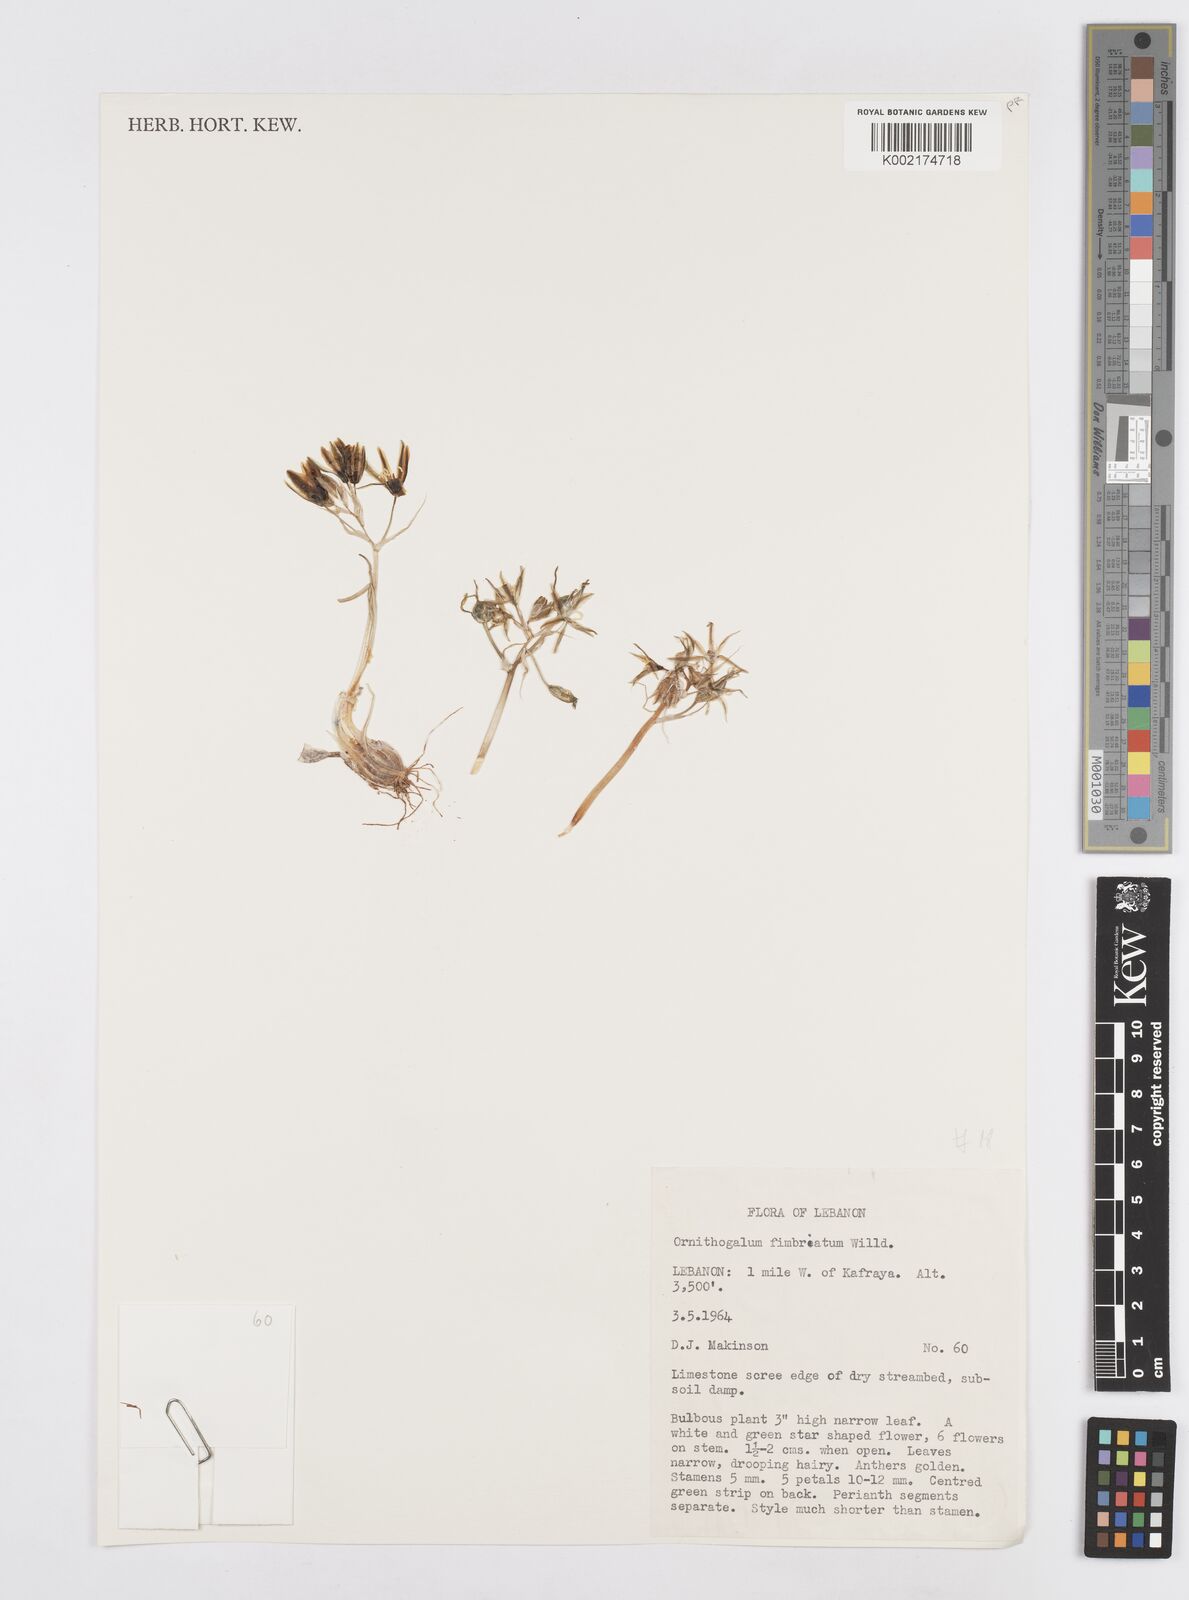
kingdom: Plantae
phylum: Tracheophyta
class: Liliopsida
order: Asparagales
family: Asparagaceae
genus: Ornithogalum
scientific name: Ornithogalum fimbriatum
